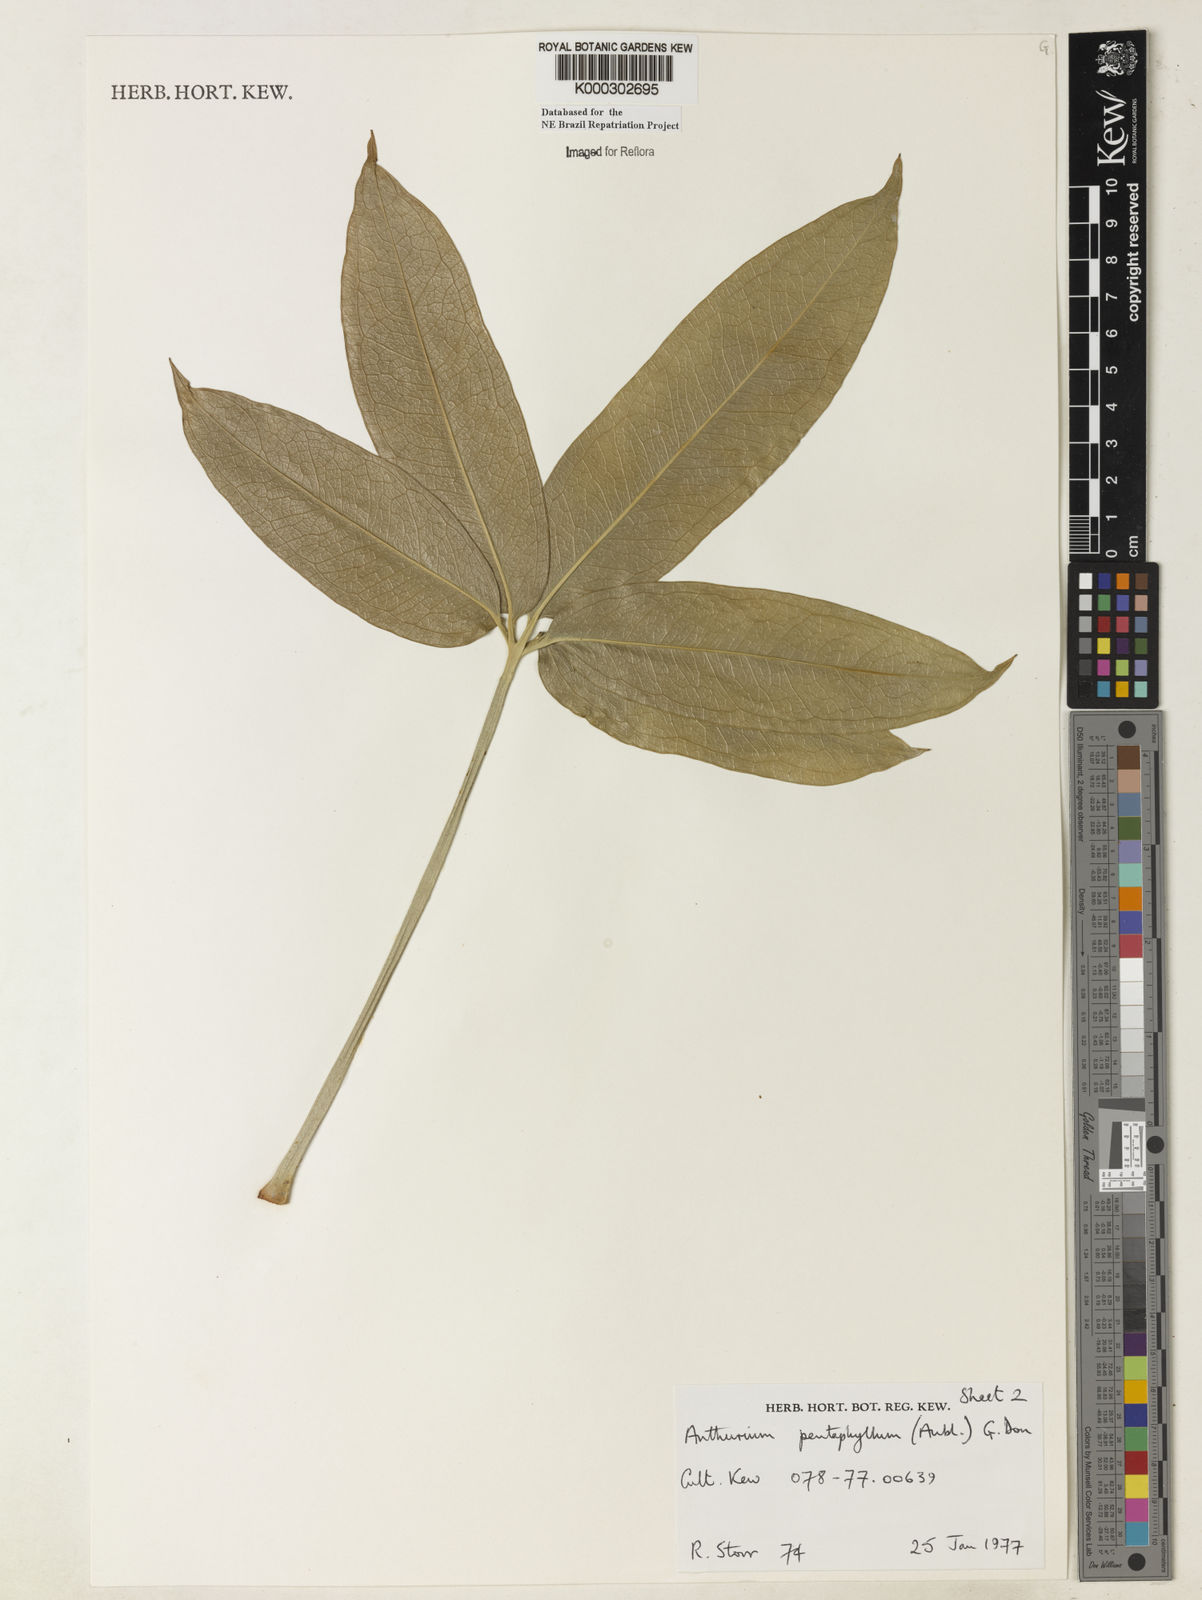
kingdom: Plantae
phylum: Tracheophyta
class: Liliopsida
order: Alismatales
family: Araceae
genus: Anthurium
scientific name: Anthurium pentaphyllum
